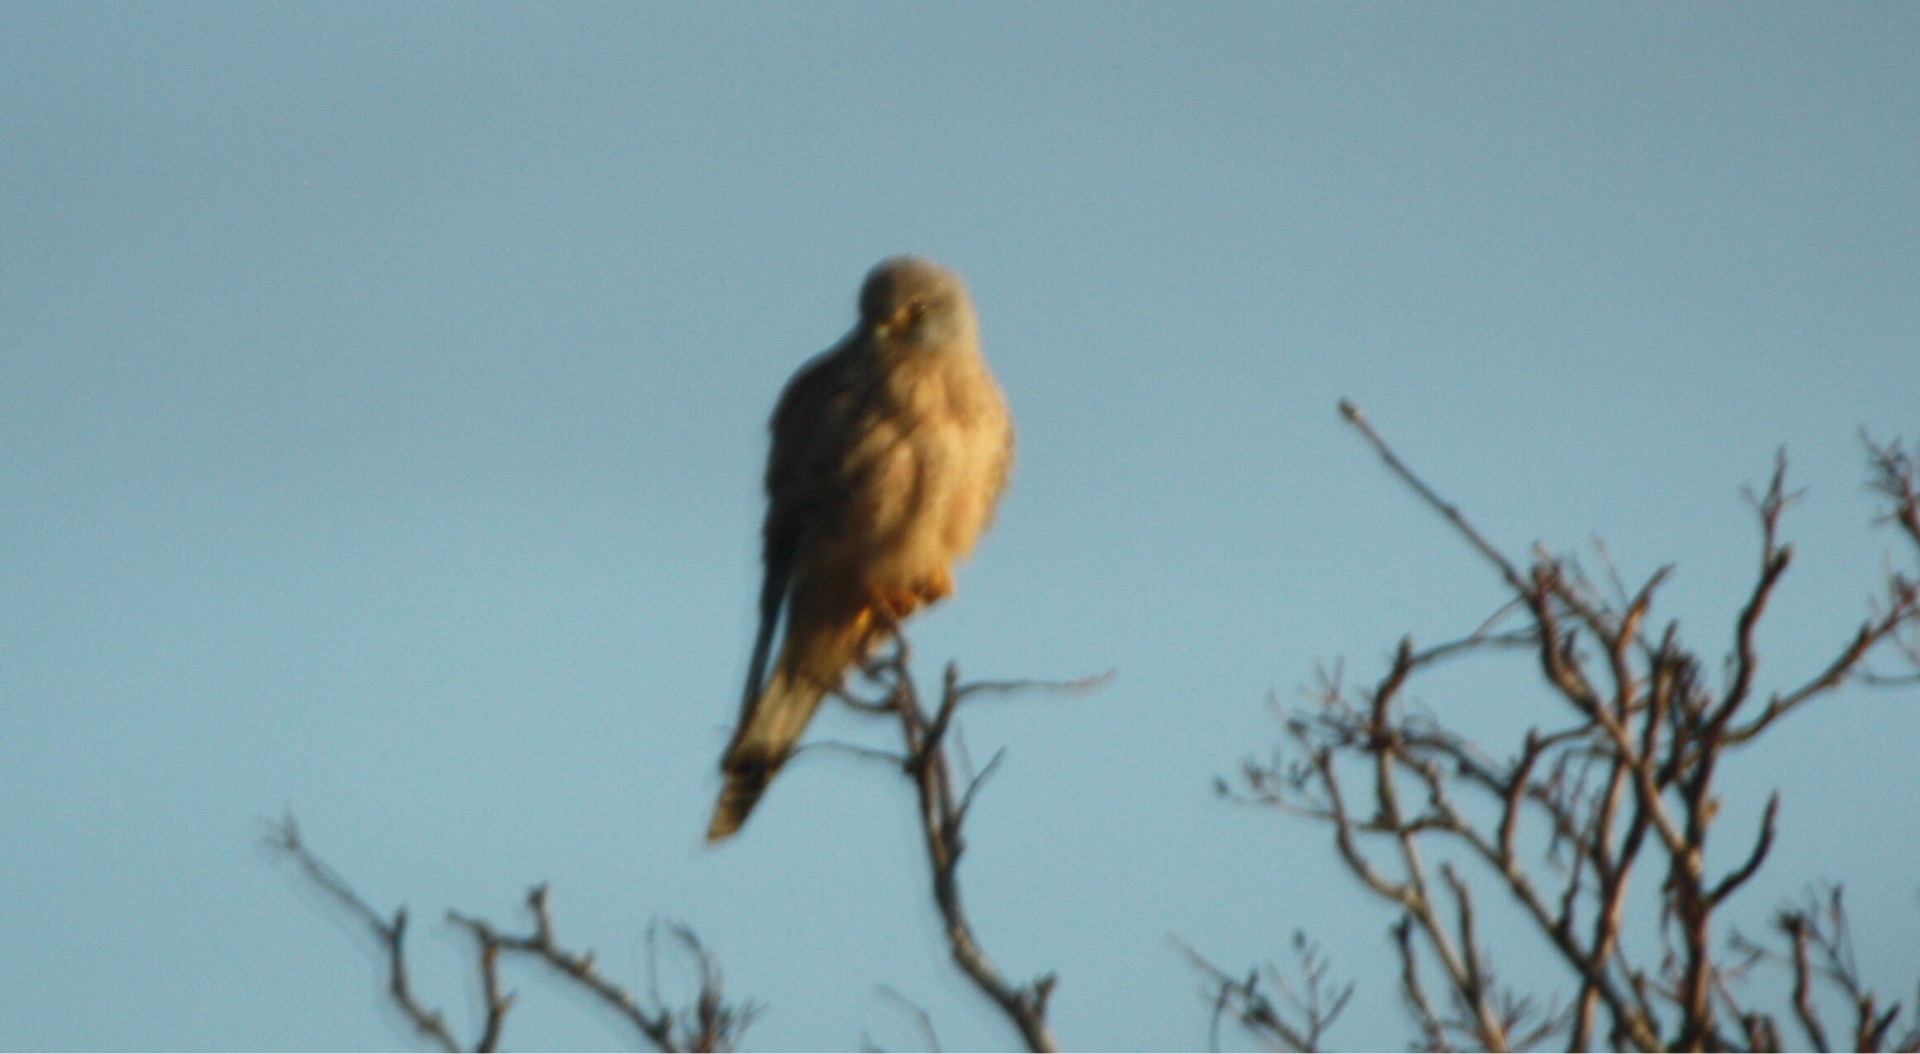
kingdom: Animalia
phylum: Chordata
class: Aves
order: Falconiformes
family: Falconidae
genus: Falco
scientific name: Falco tinnunculus
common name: Tårnfalk
